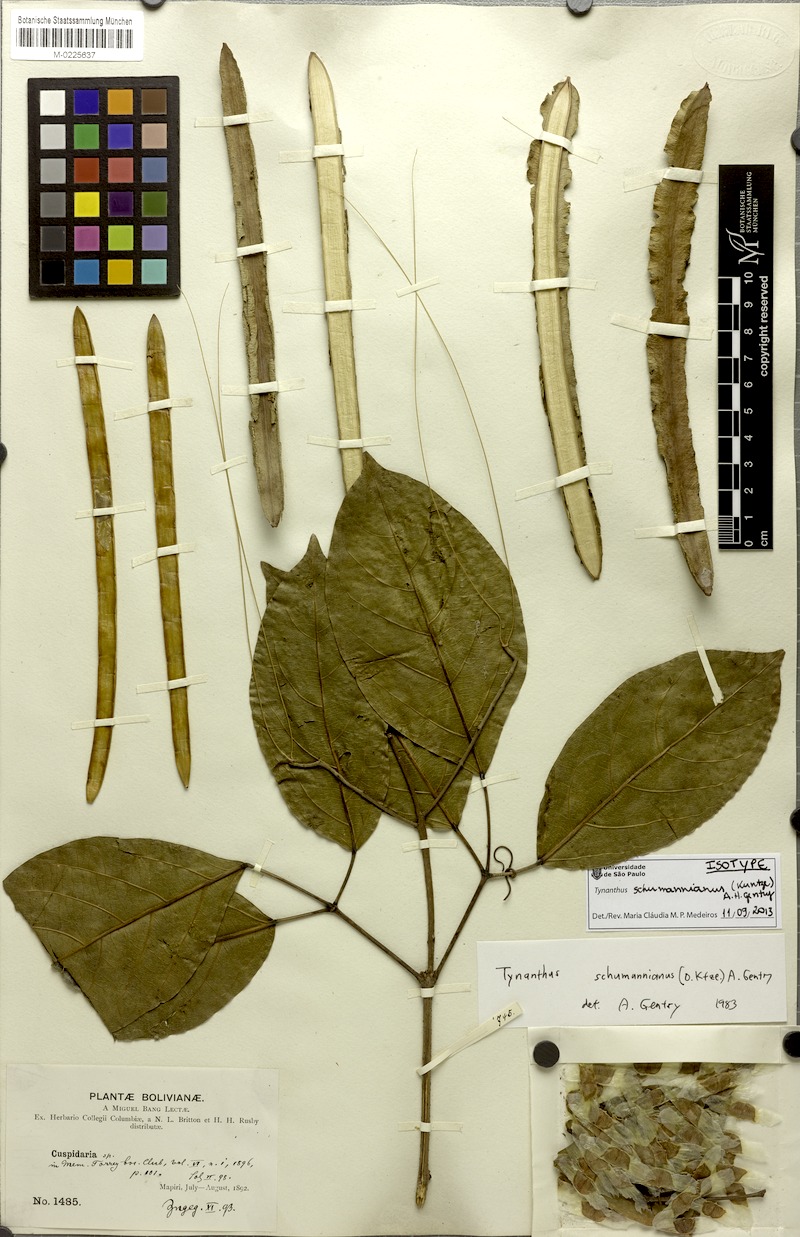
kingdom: Plantae
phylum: Tracheophyta
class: Magnoliopsida
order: Lamiales
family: Bignoniaceae
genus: Tynanthus
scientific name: Tynanthus schumannianus
